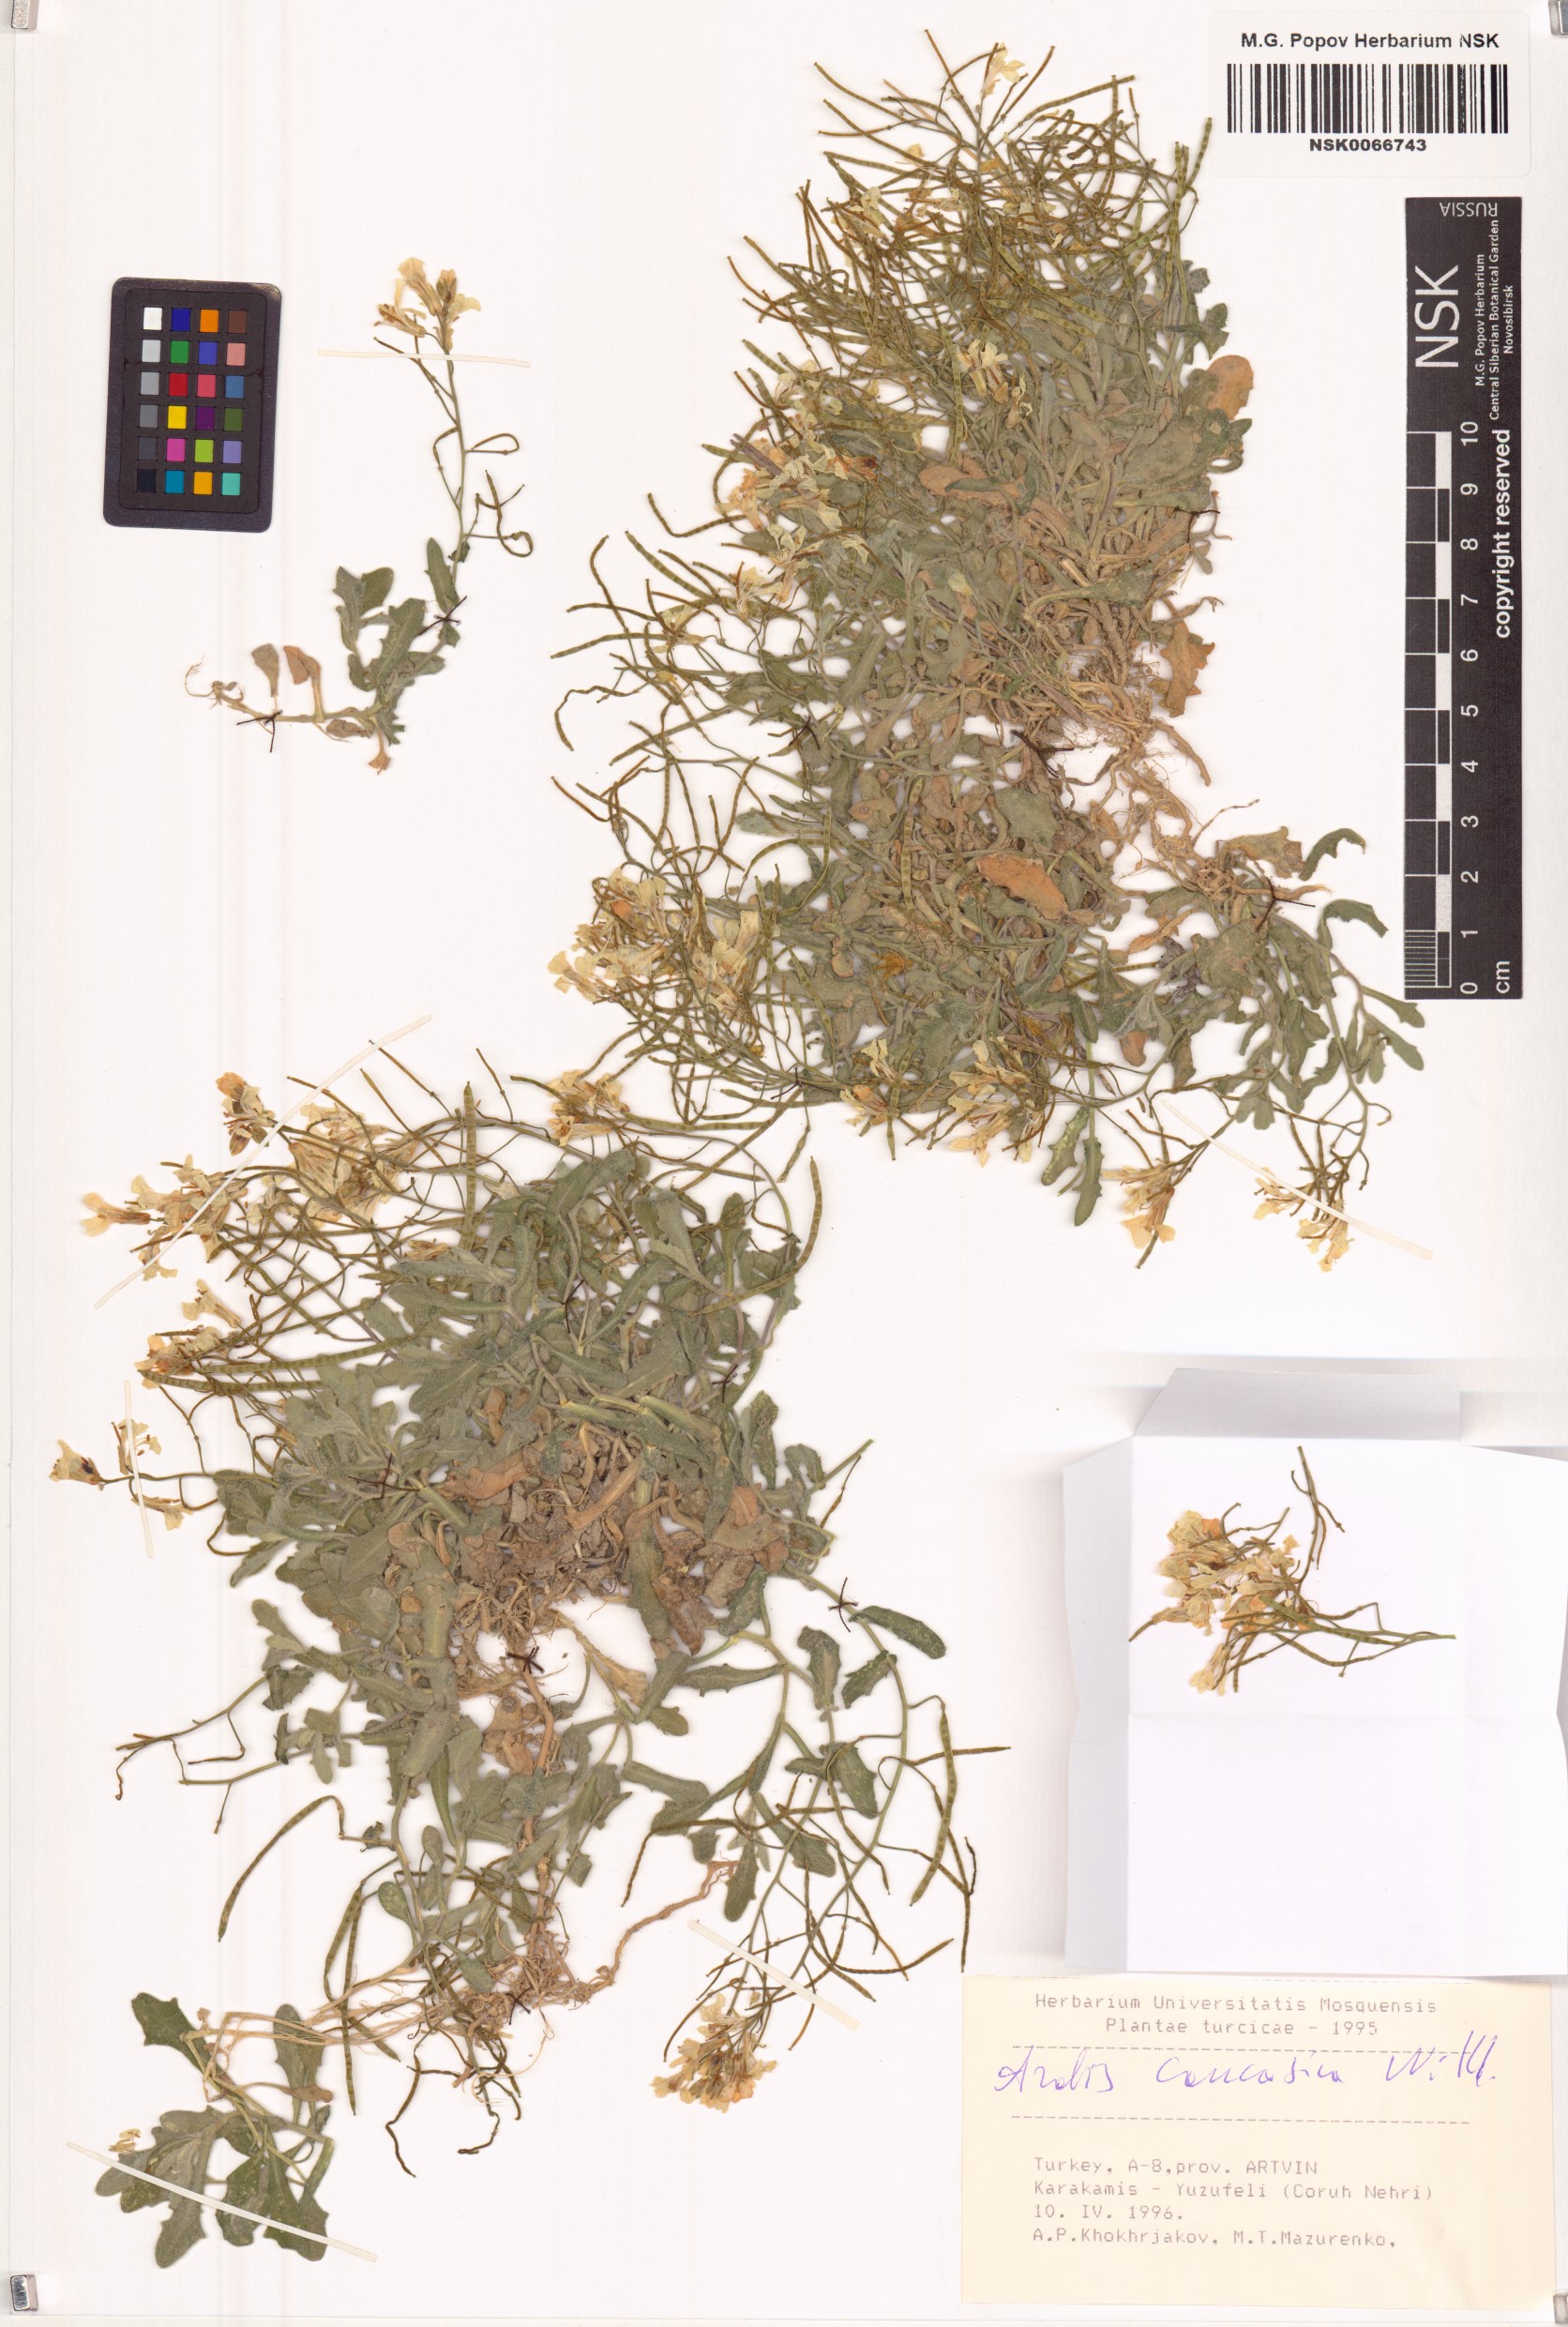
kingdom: Plantae
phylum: Tracheophyta
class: Magnoliopsida
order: Brassicales
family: Brassicaceae
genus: Arabis
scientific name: Arabis caucasica
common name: Gray rockcress
